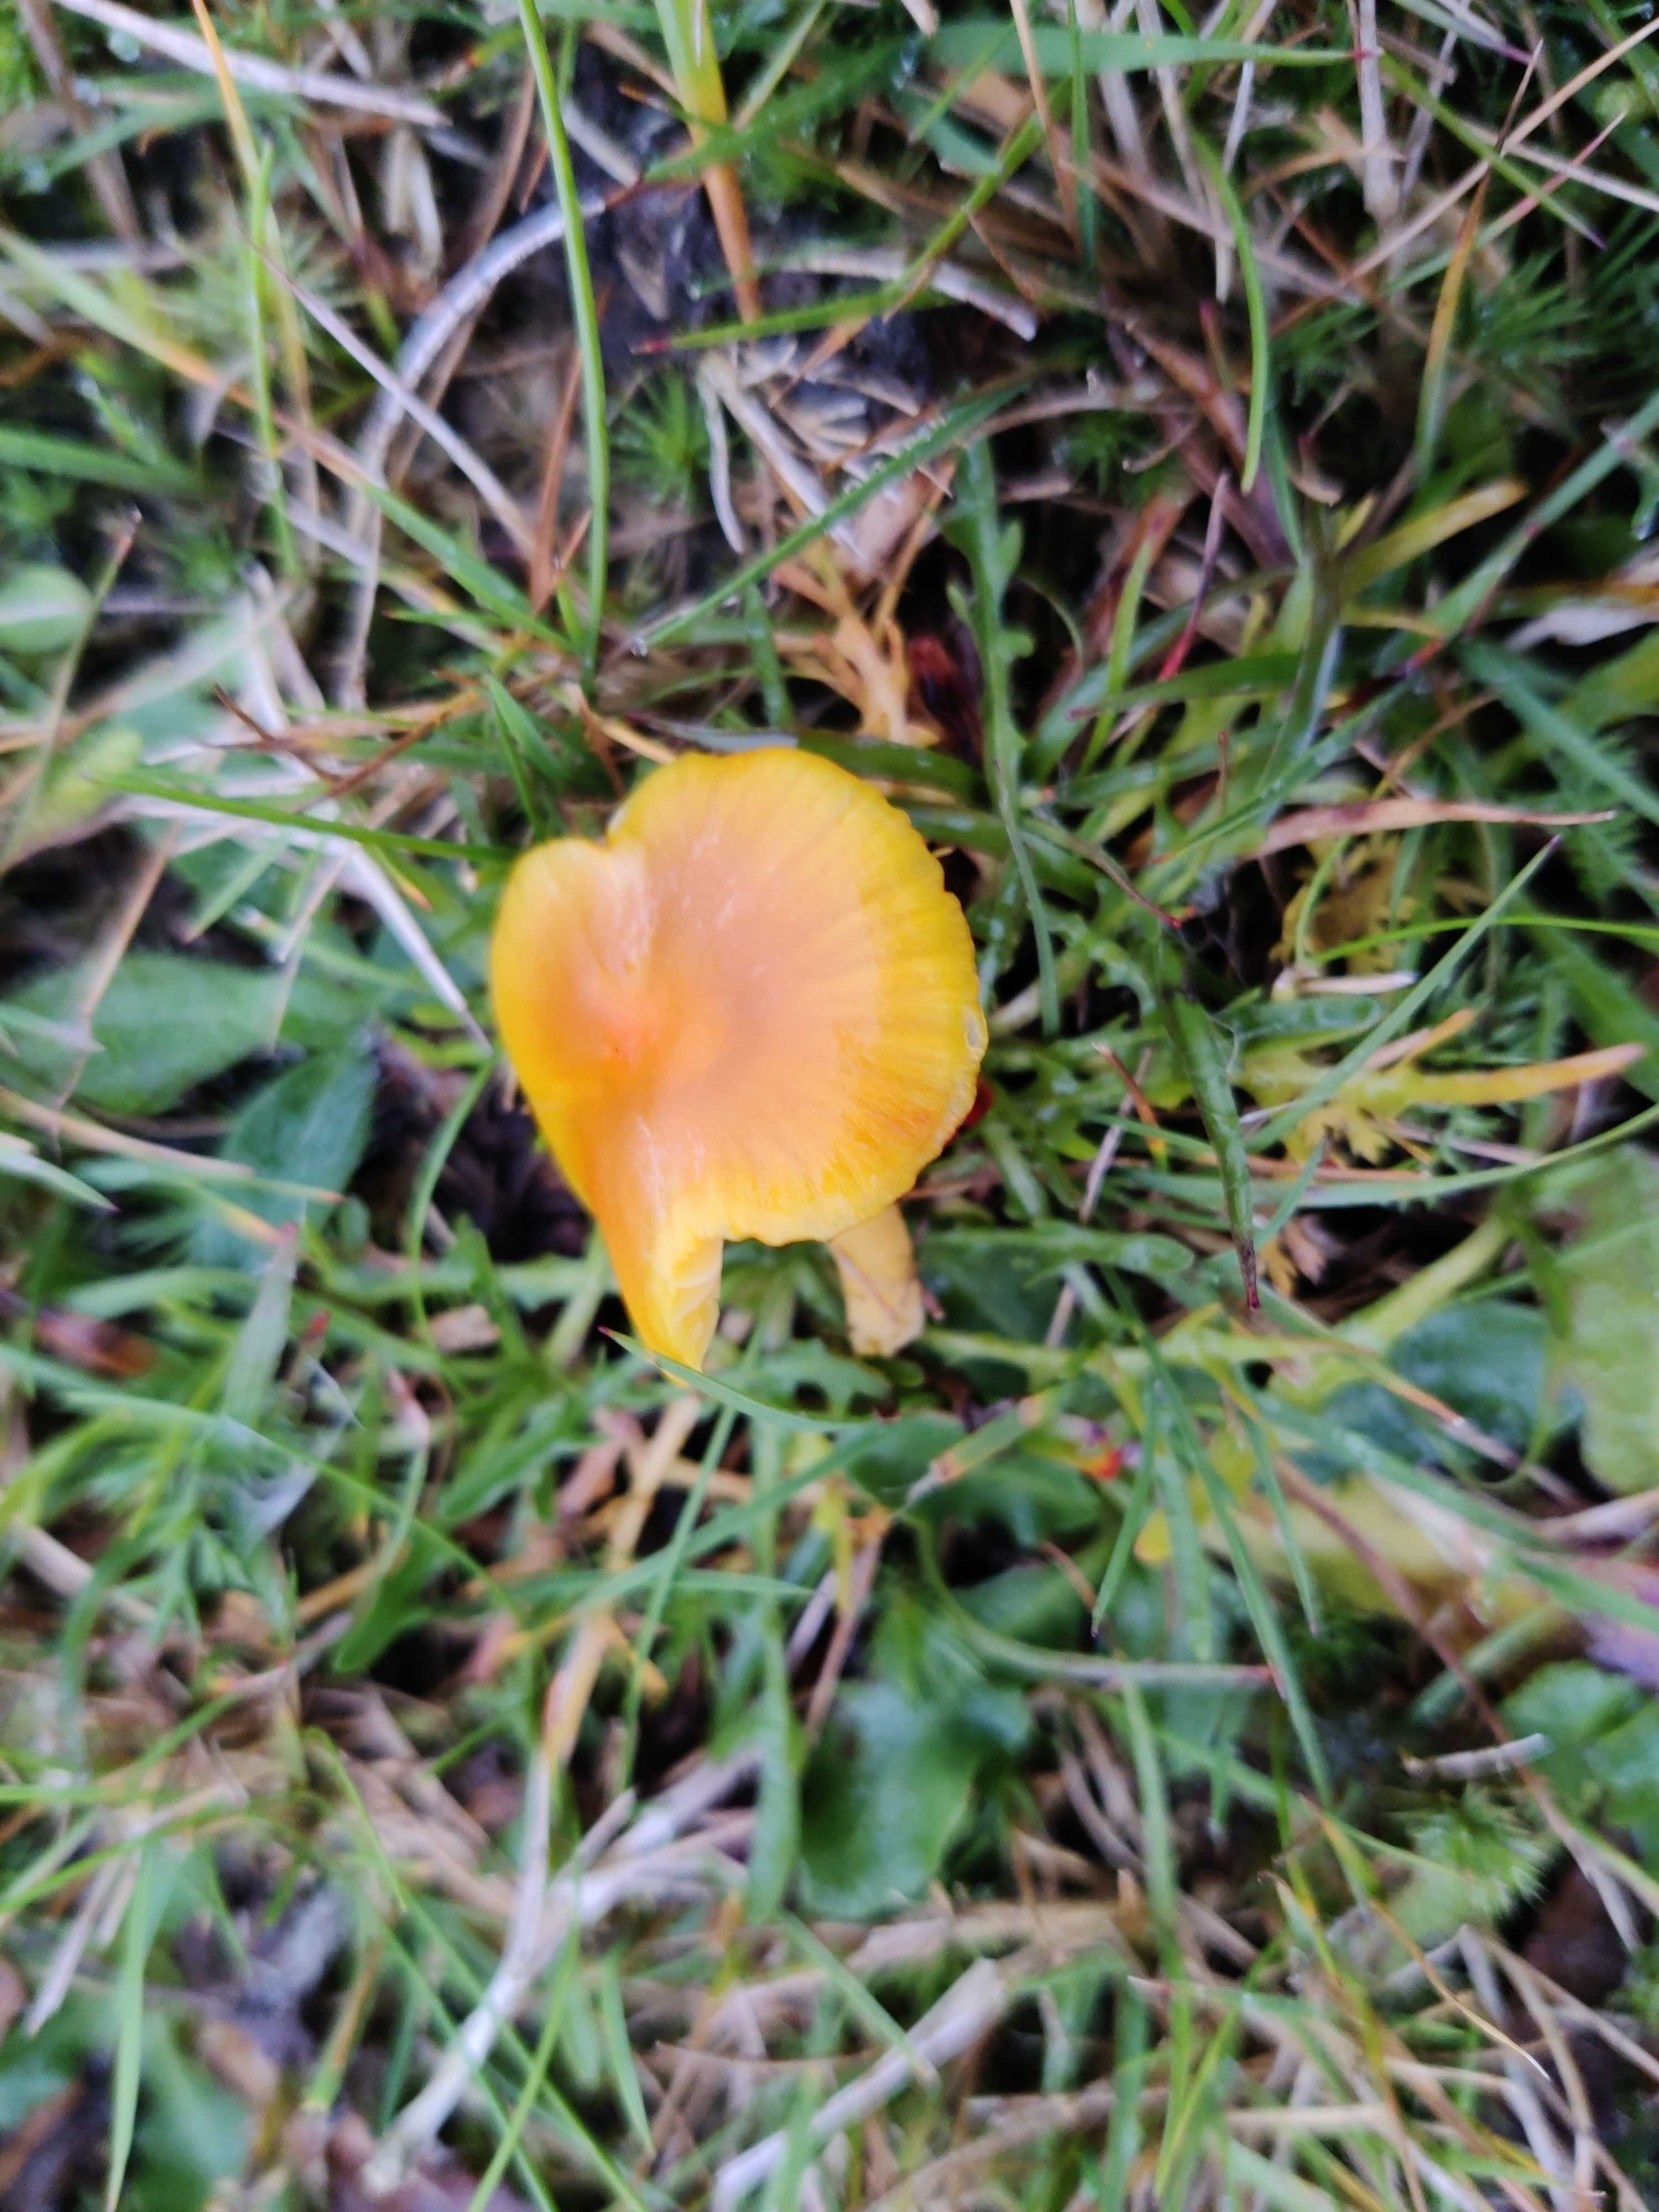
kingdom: Fungi
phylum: Basidiomycota
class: Agaricomycetes
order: Agaricales
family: Hygrophoraceae
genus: Hygrocybe
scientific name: Hygrocybe ceracea
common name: voksgul vokshat
